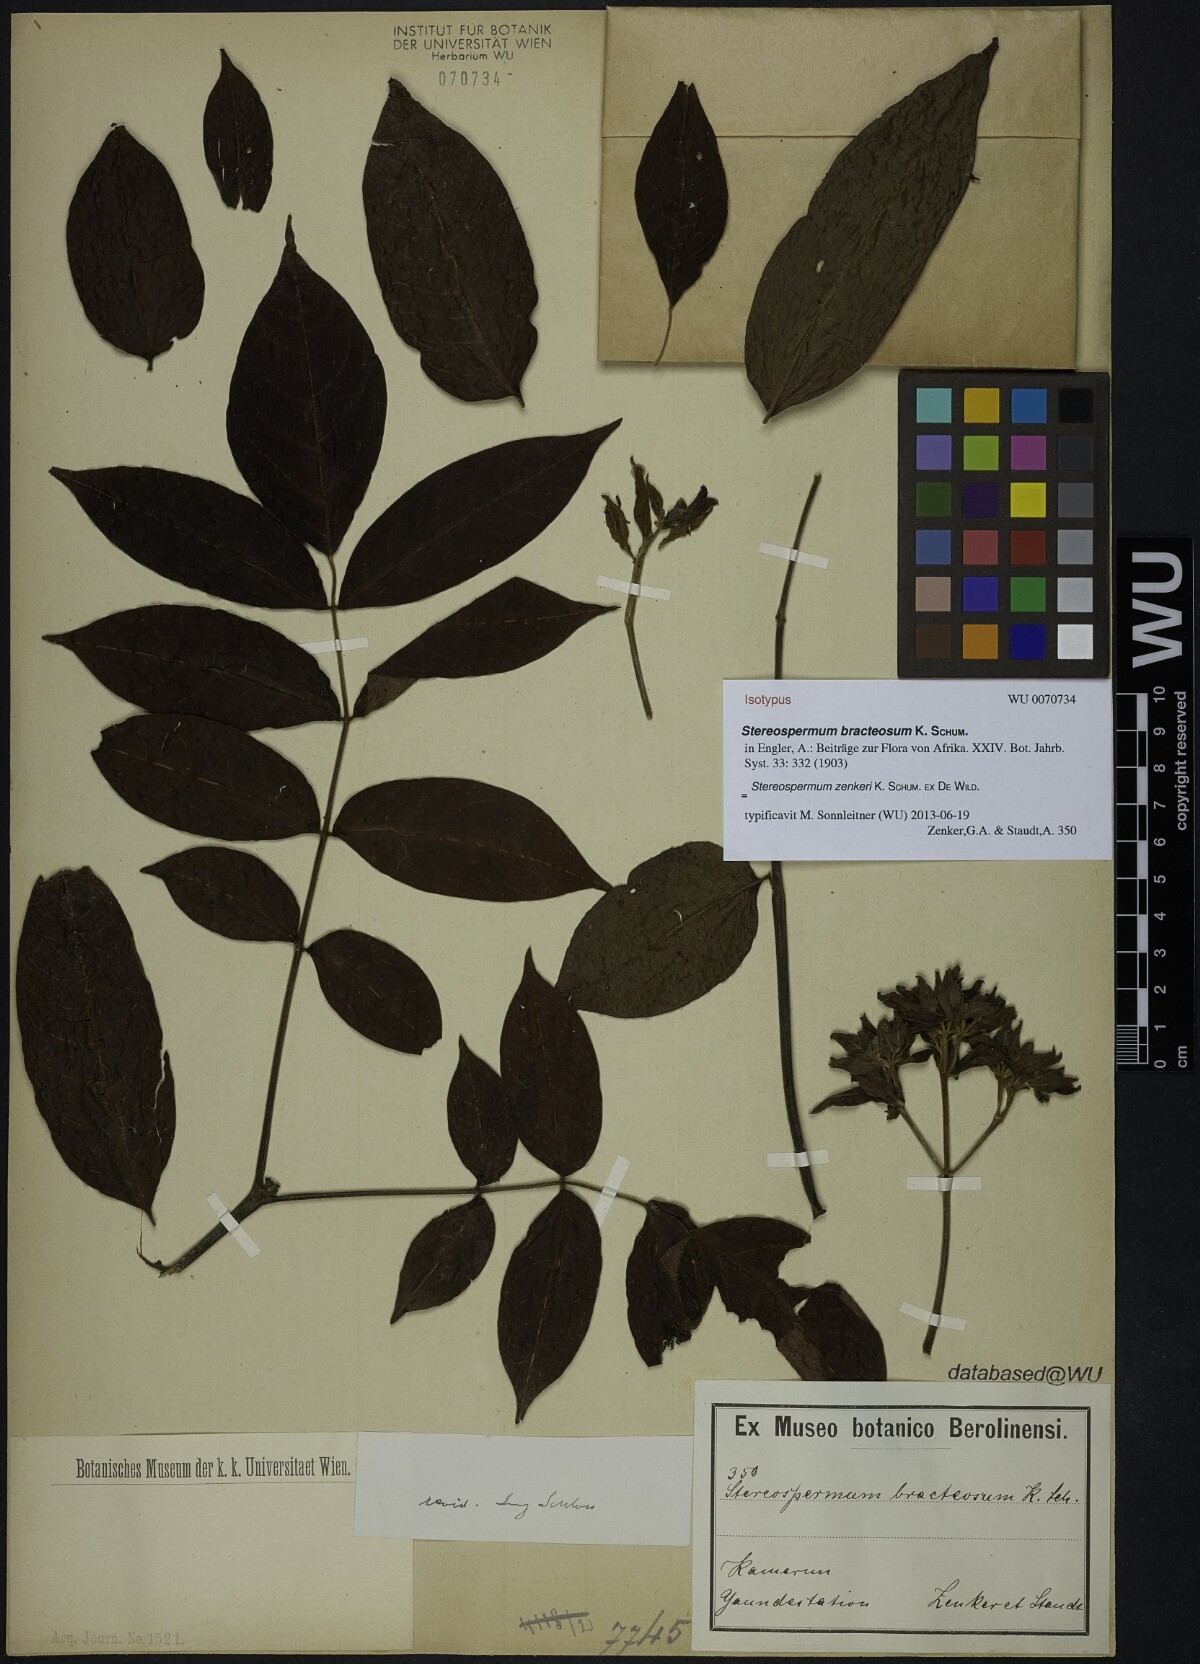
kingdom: Plantae
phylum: Tracheophyta
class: Magnoliopsida
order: Lamiales
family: Bignoniaceae
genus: Stereospermum
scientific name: Stereospermum zenkeri
